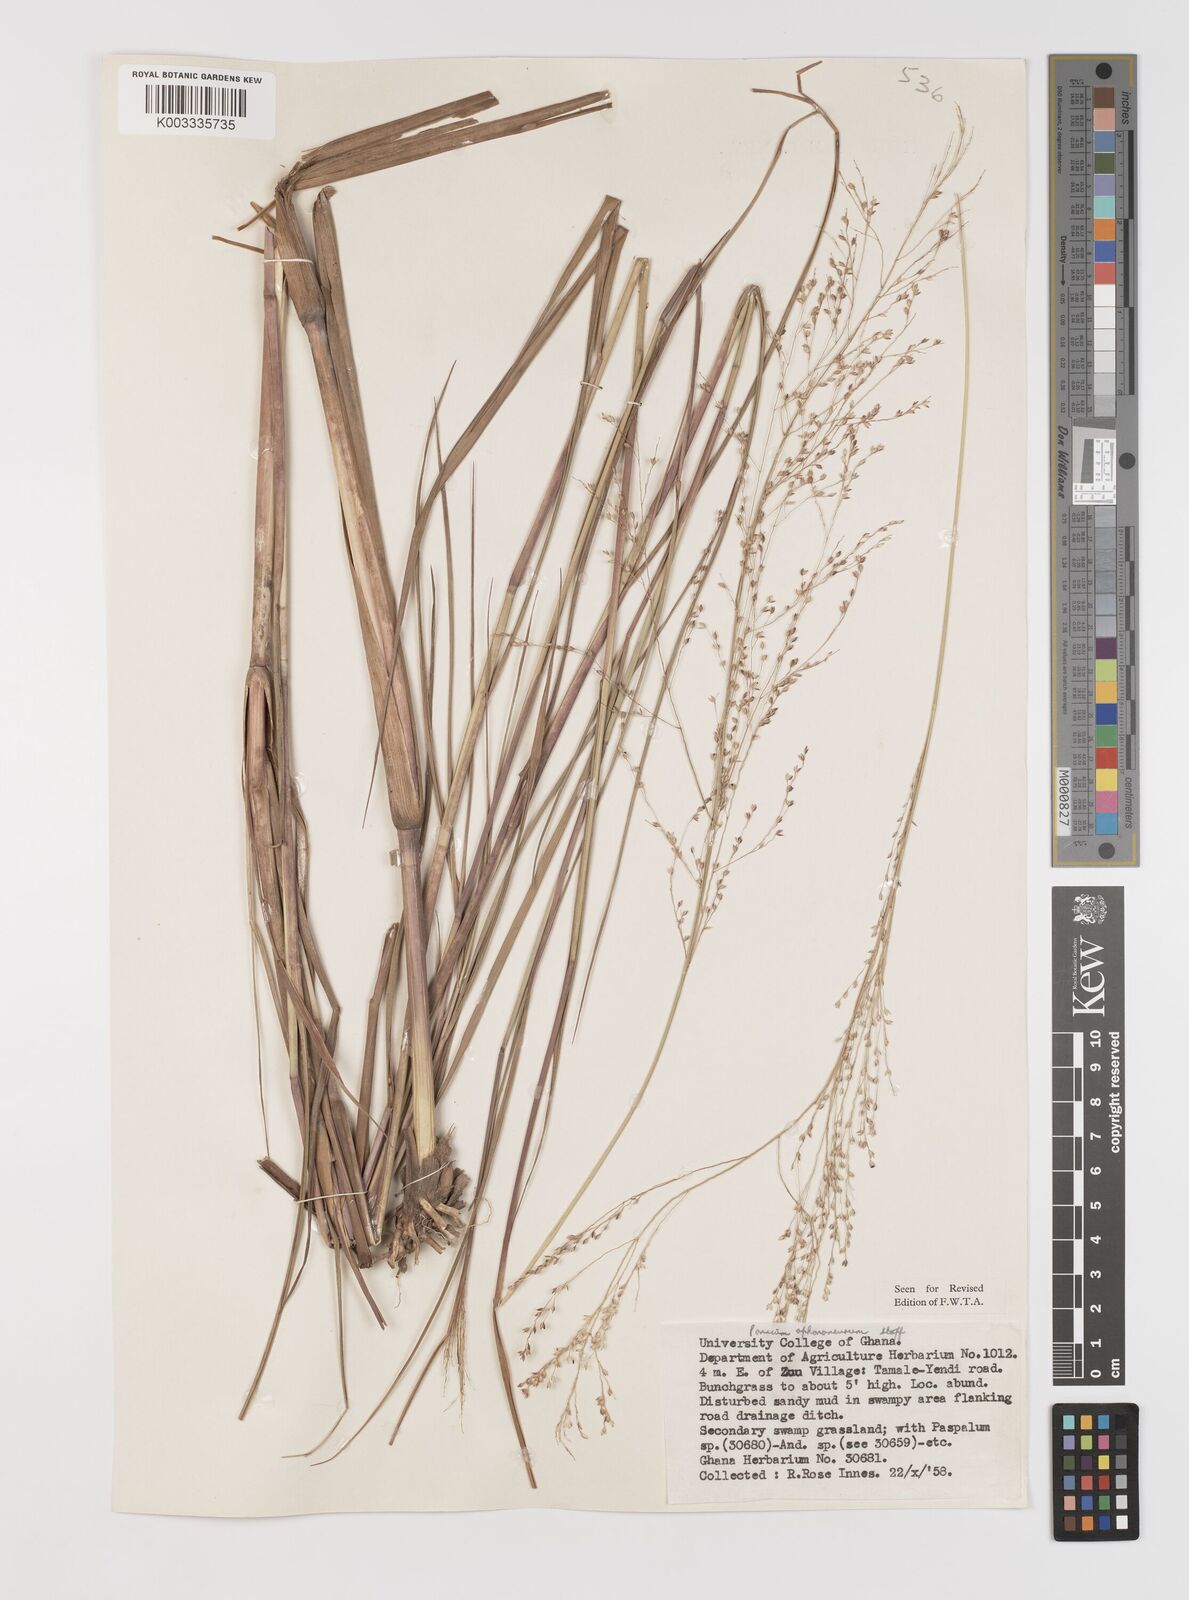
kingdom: Plantae
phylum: Tracheophyta
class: Liliopsida
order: Poales
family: Poaceae
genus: Panicum
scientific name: Panicum fluviicola
